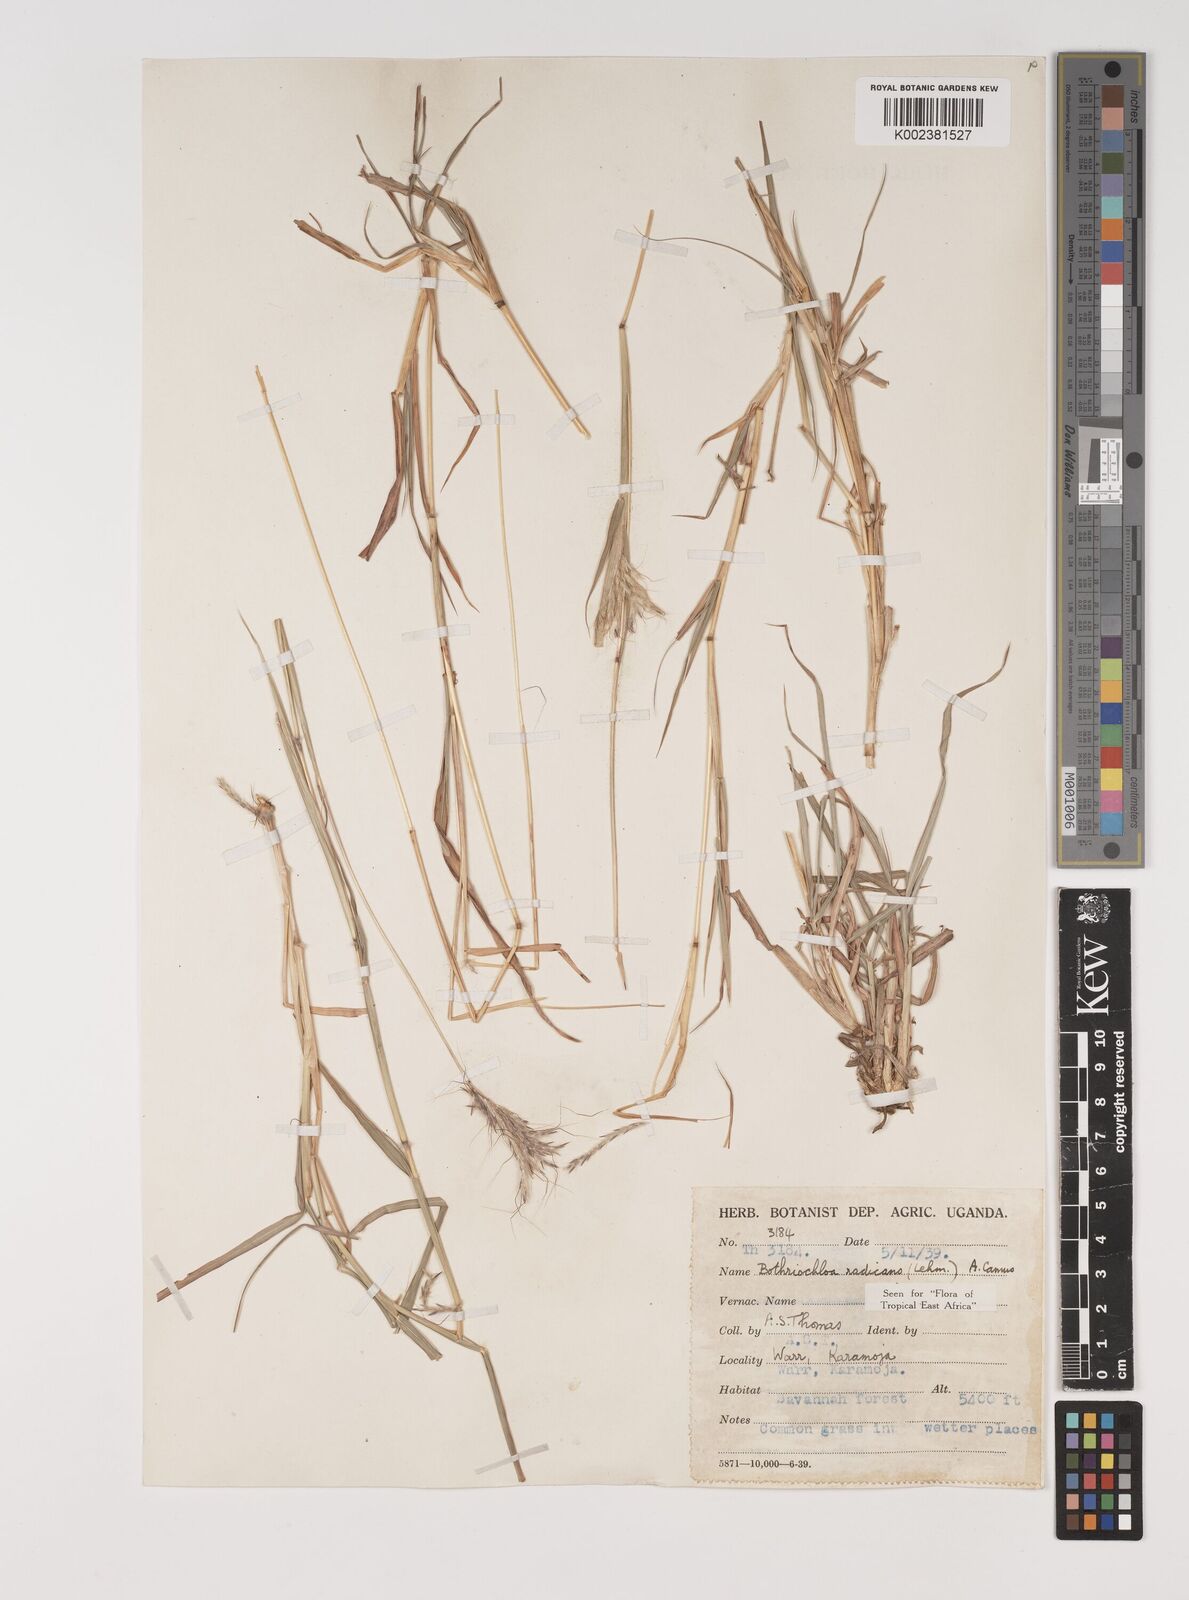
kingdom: Plantae
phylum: Tracheophyta
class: Liliopsida
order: Poales
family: Poaceae
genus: Bothriochloa
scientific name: Bothriochloa radicans
